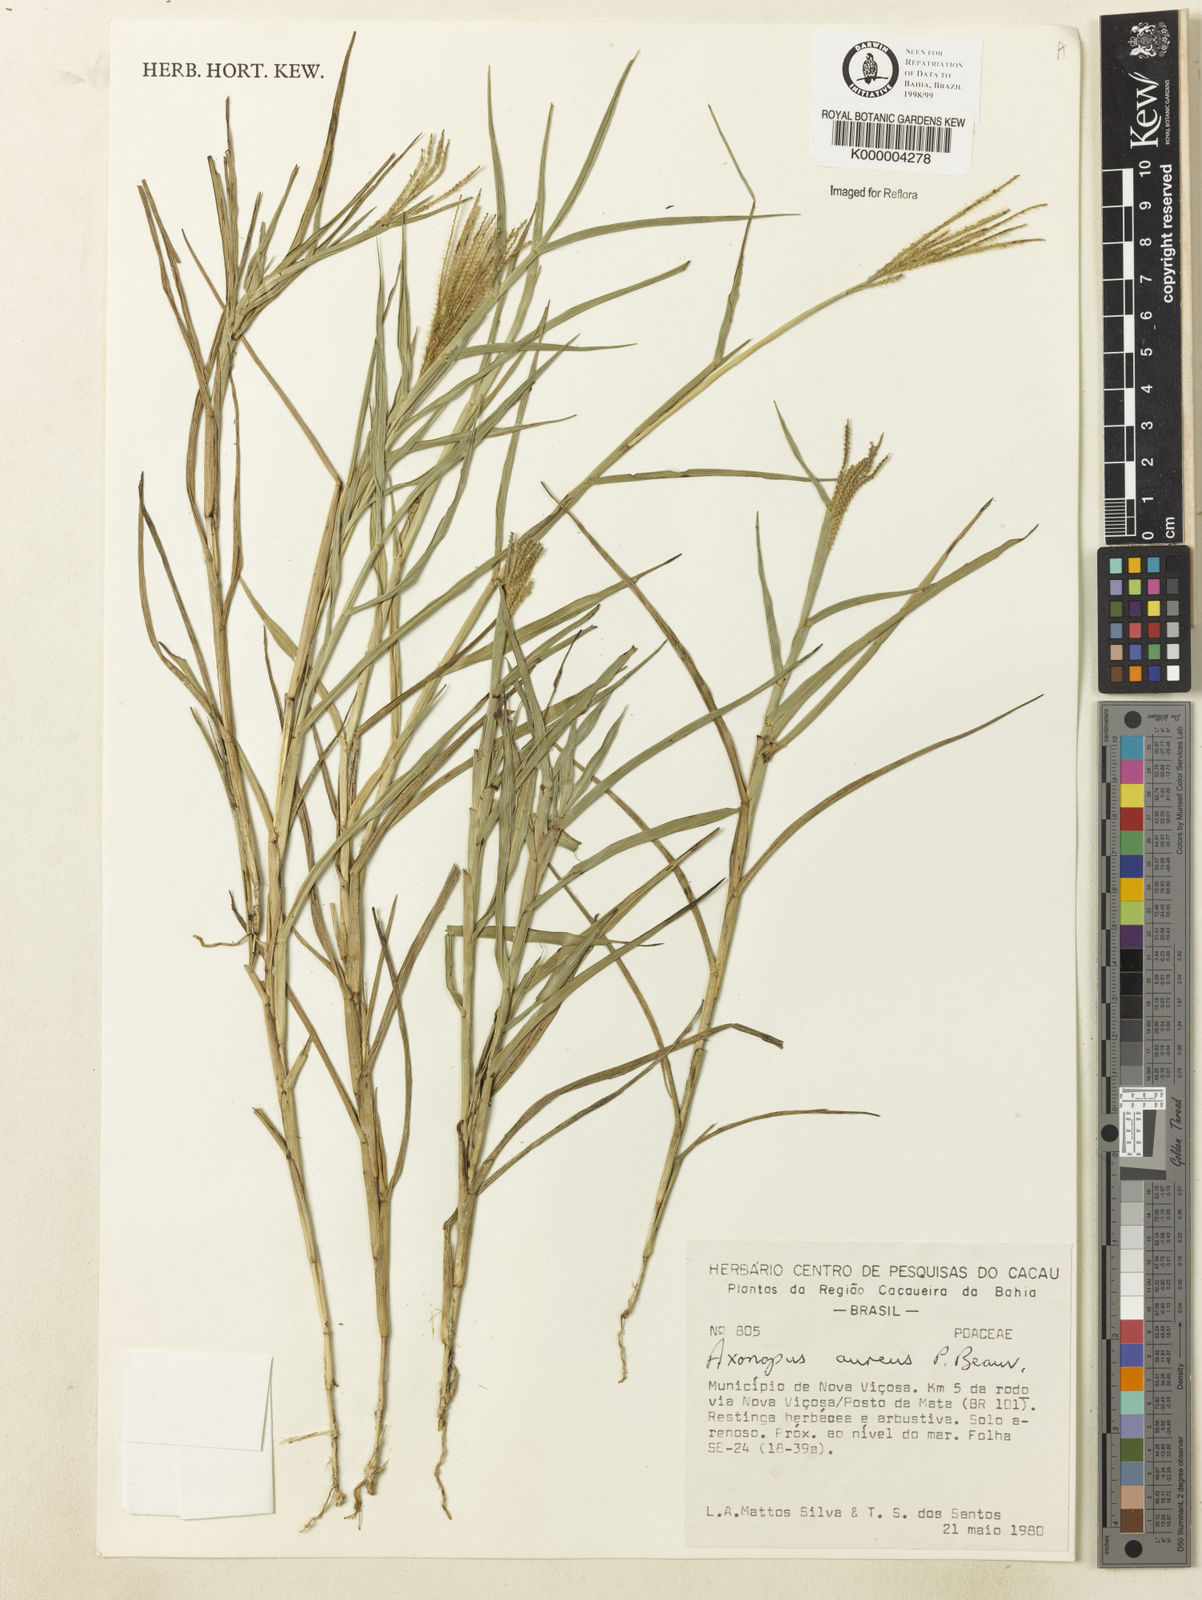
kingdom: Plantae
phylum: Tracheophyta
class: Liliopsida
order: Poales
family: Poaceae
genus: Axonopus
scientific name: Axonopus aureus
